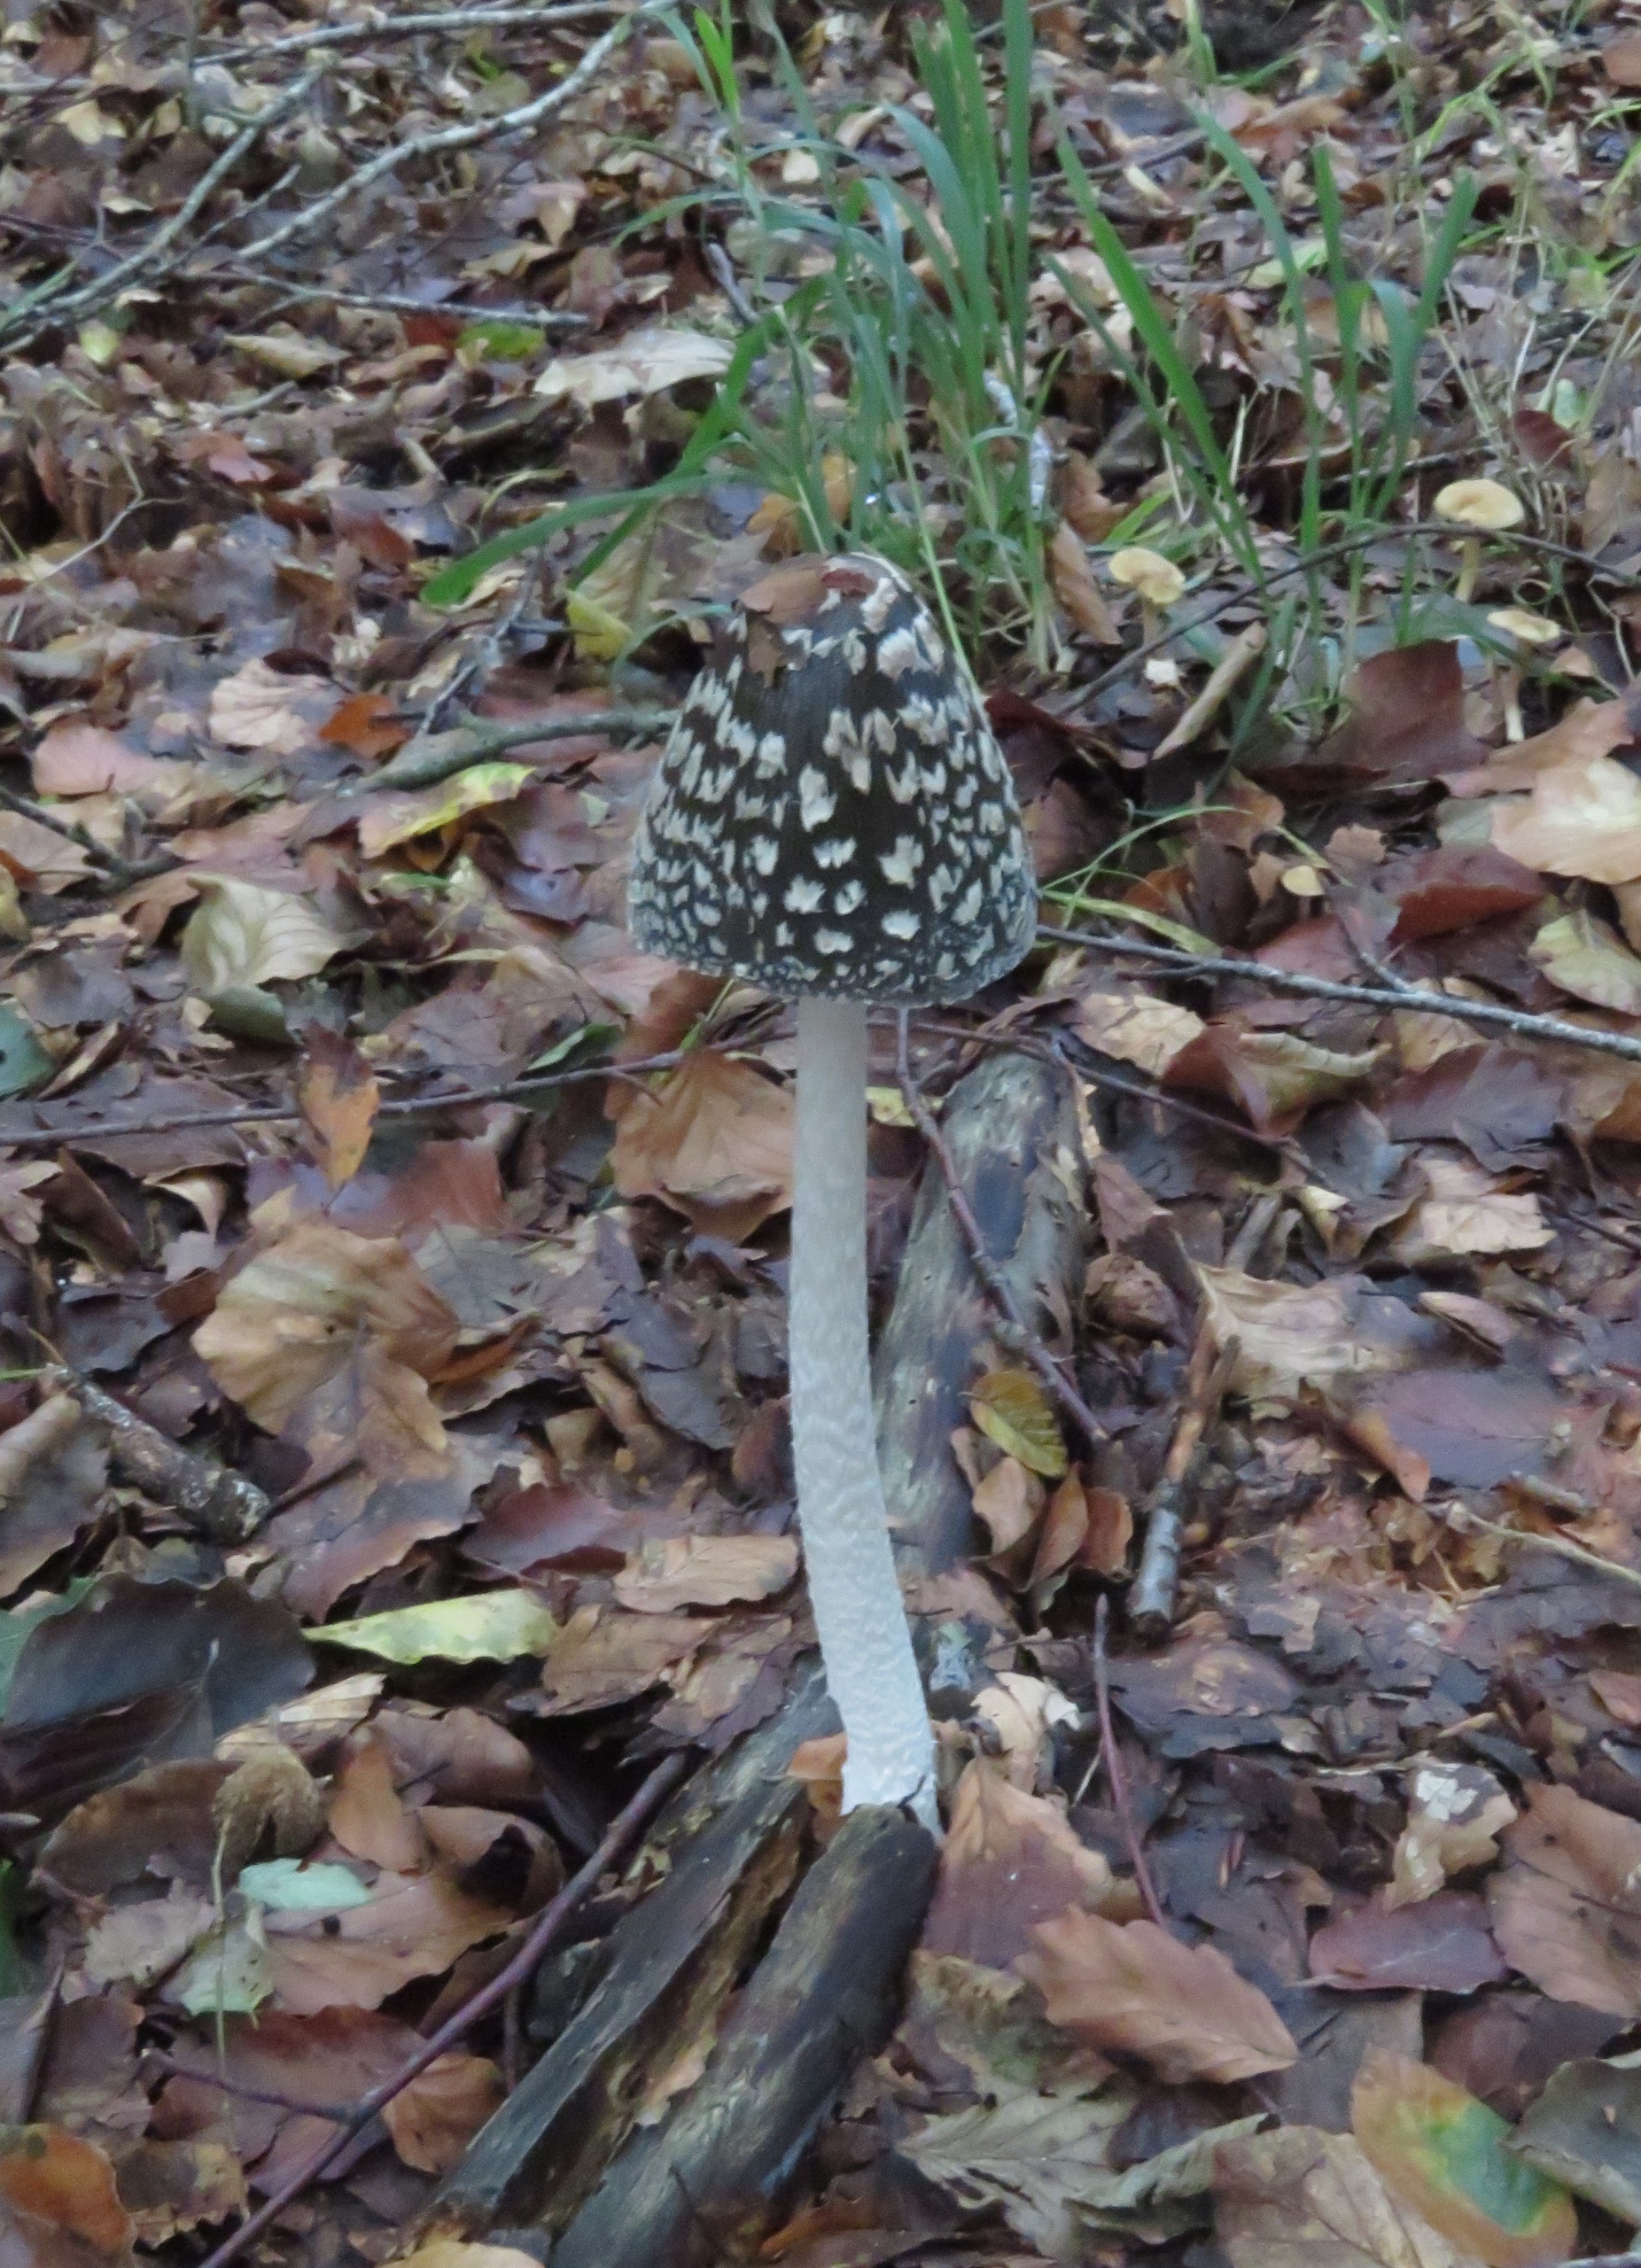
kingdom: Fungi
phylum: Basidiomycota
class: Agaricomycetes
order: Agaricales
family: Psathyrellaceae
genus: Coprinopsis
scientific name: Coprinopsis picacea
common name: Skade-blækhat
